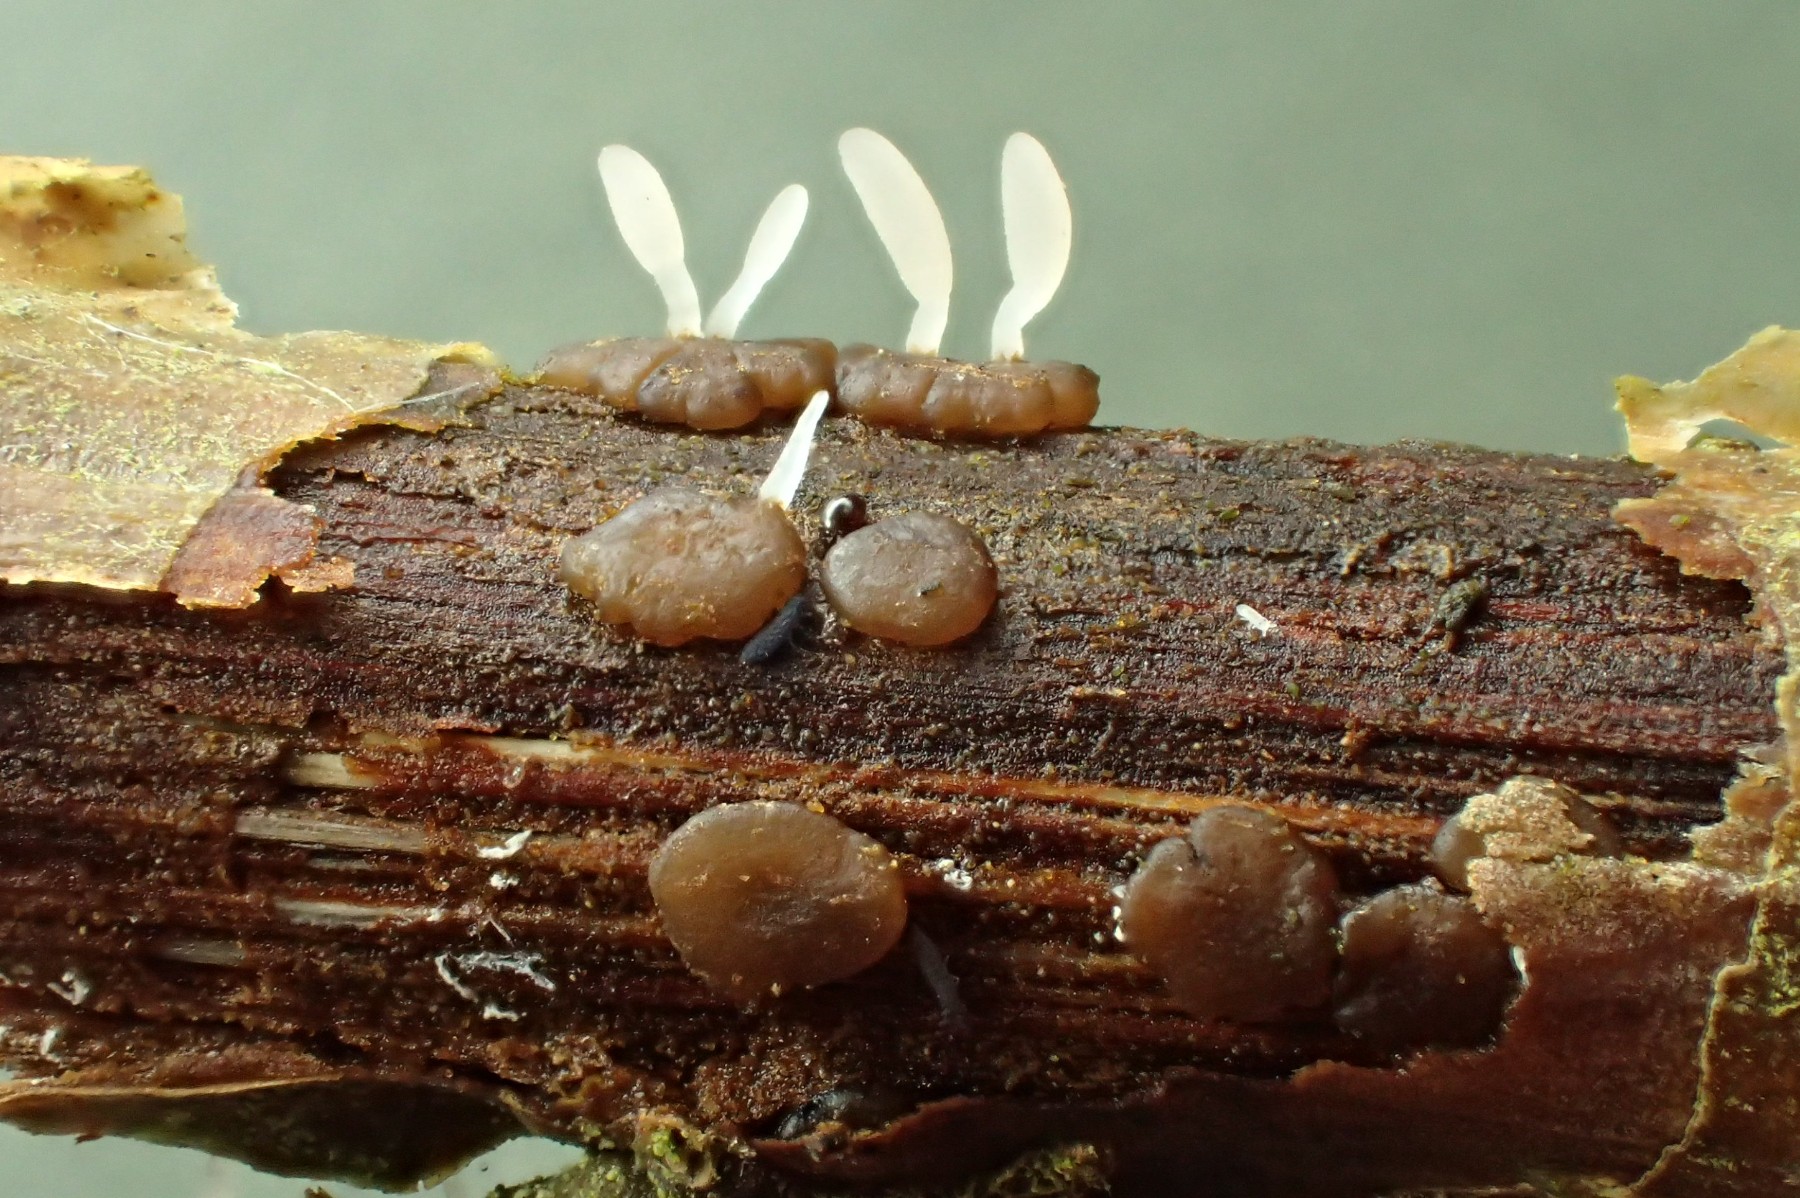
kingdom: Fungi
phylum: Basidiomycota
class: Agaricomycetes
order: Agaricales
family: Typhulaceae
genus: Typhula
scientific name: Typhula spathulata
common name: aske-trådkølle
